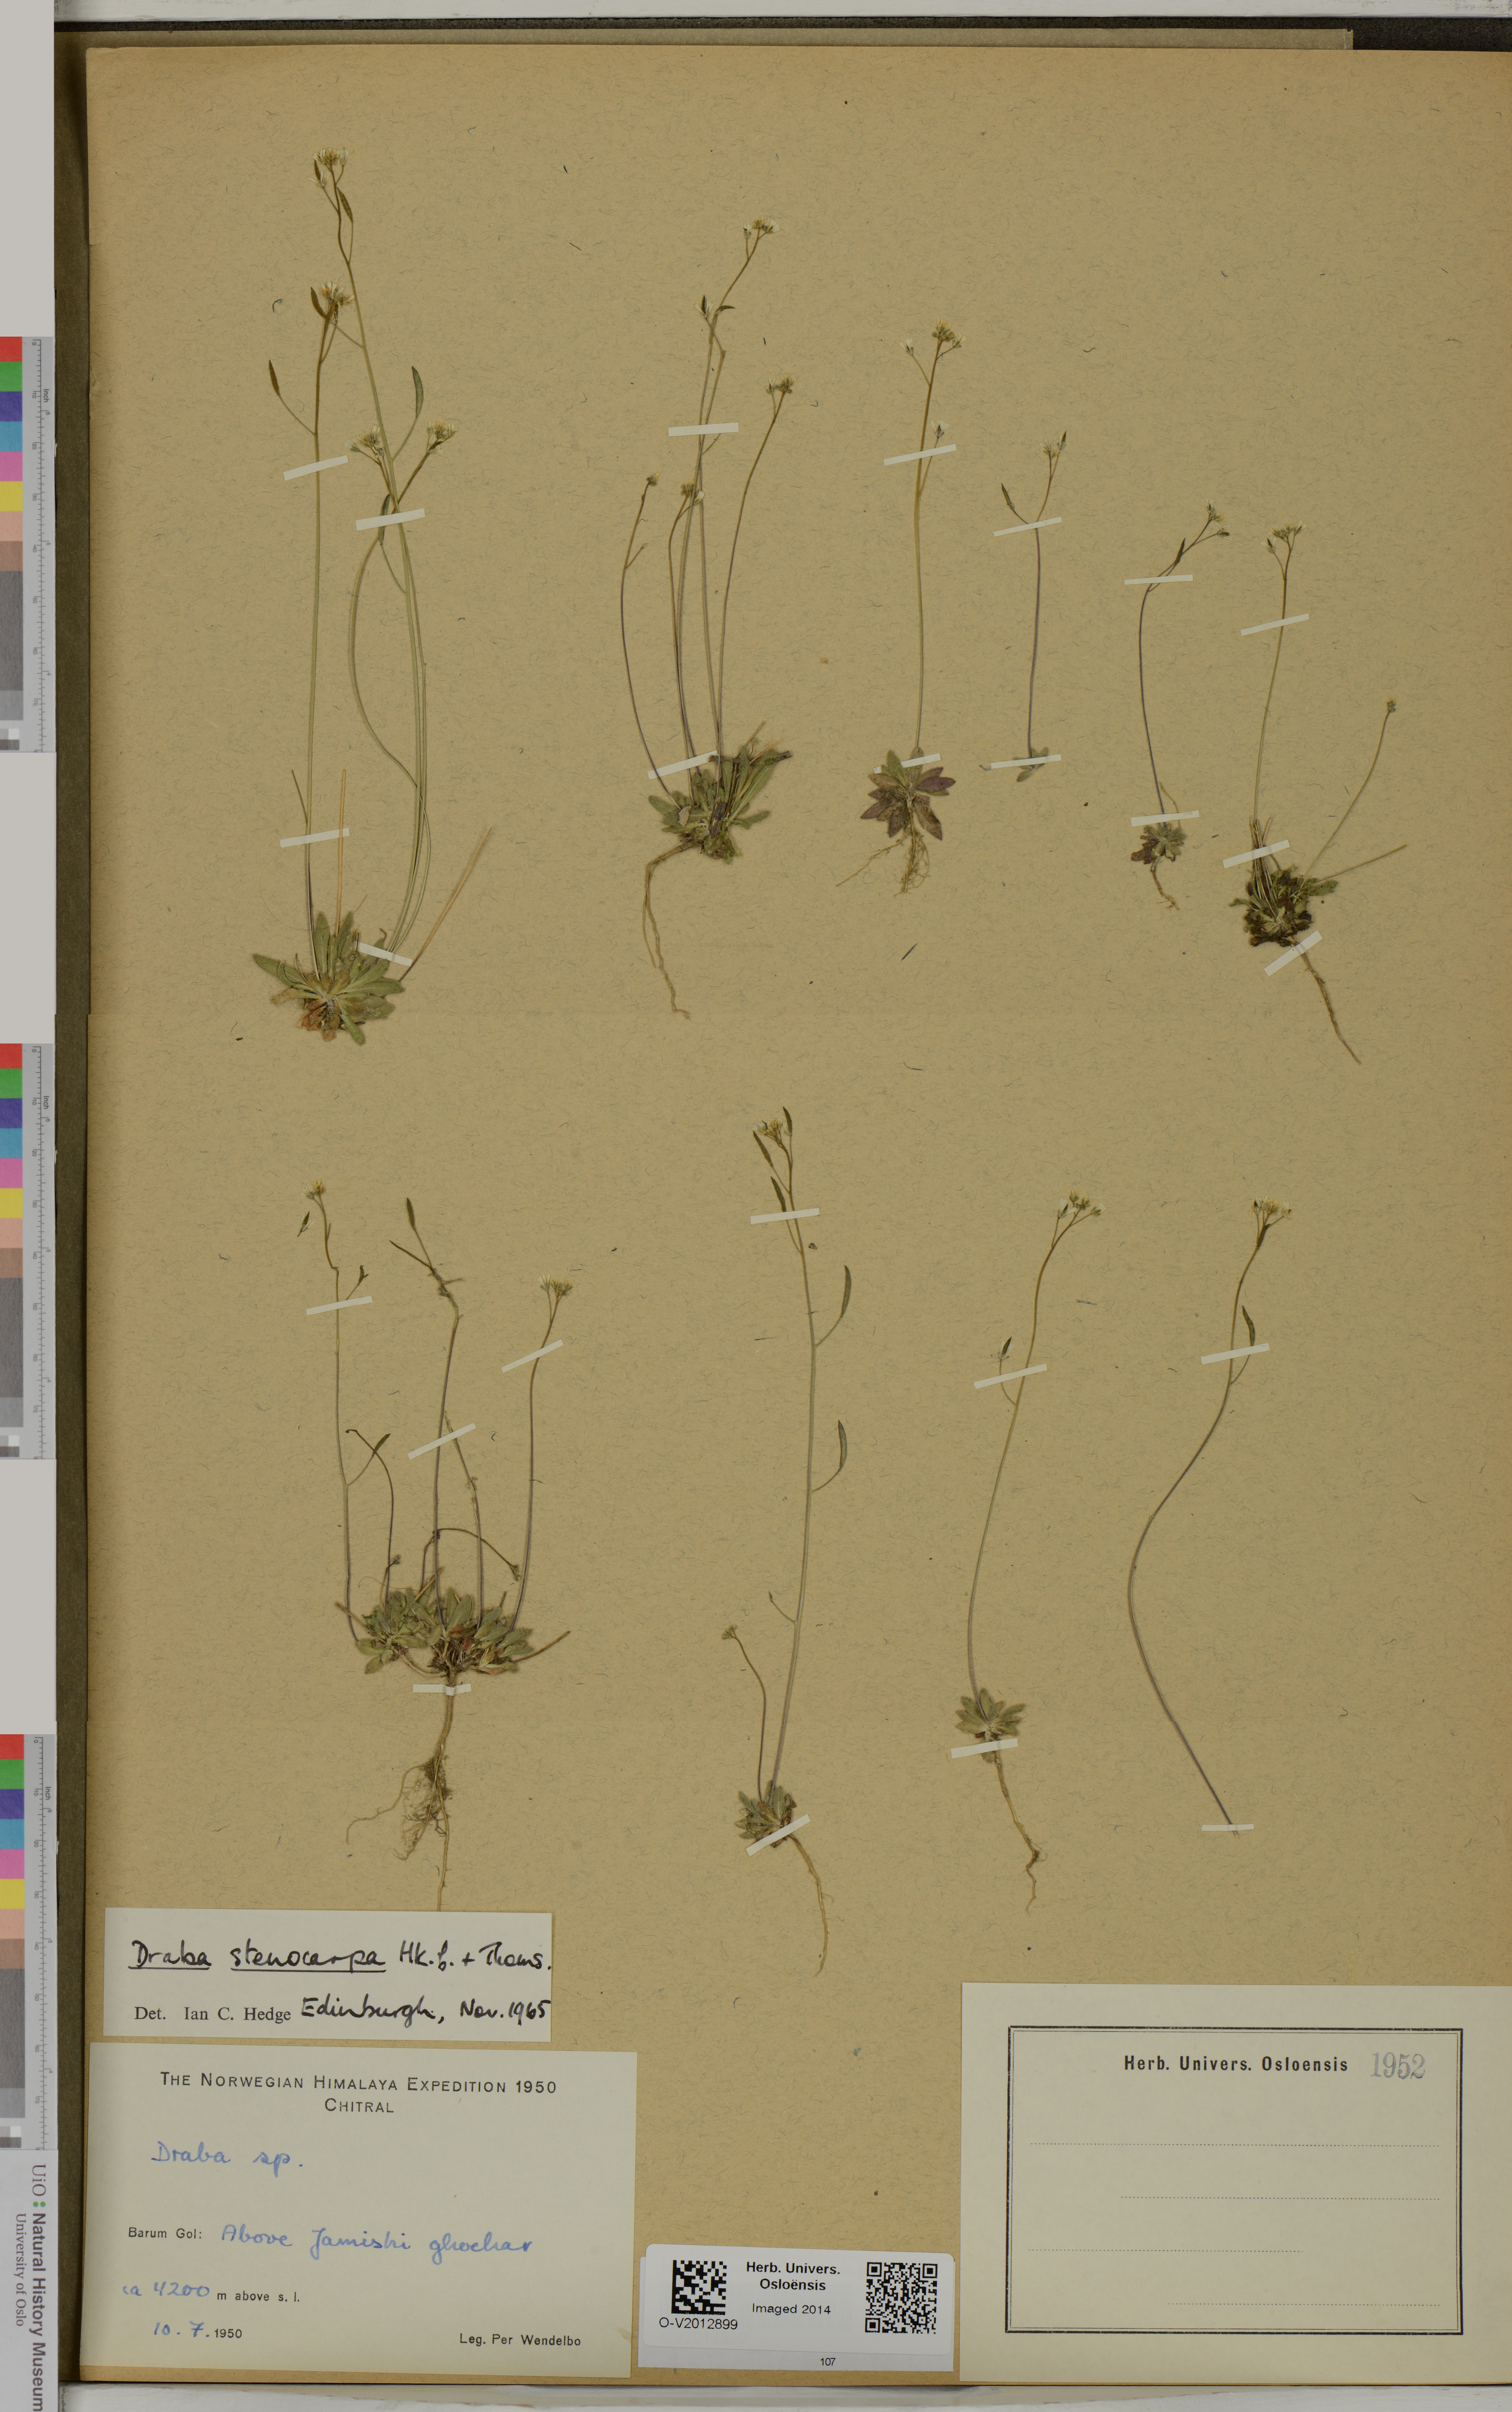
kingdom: Plantae
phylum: Tracheophyta
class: Magnoliopsida
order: Brassicales
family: Brassicaceae
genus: Draba
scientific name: Draba stenocarpa
